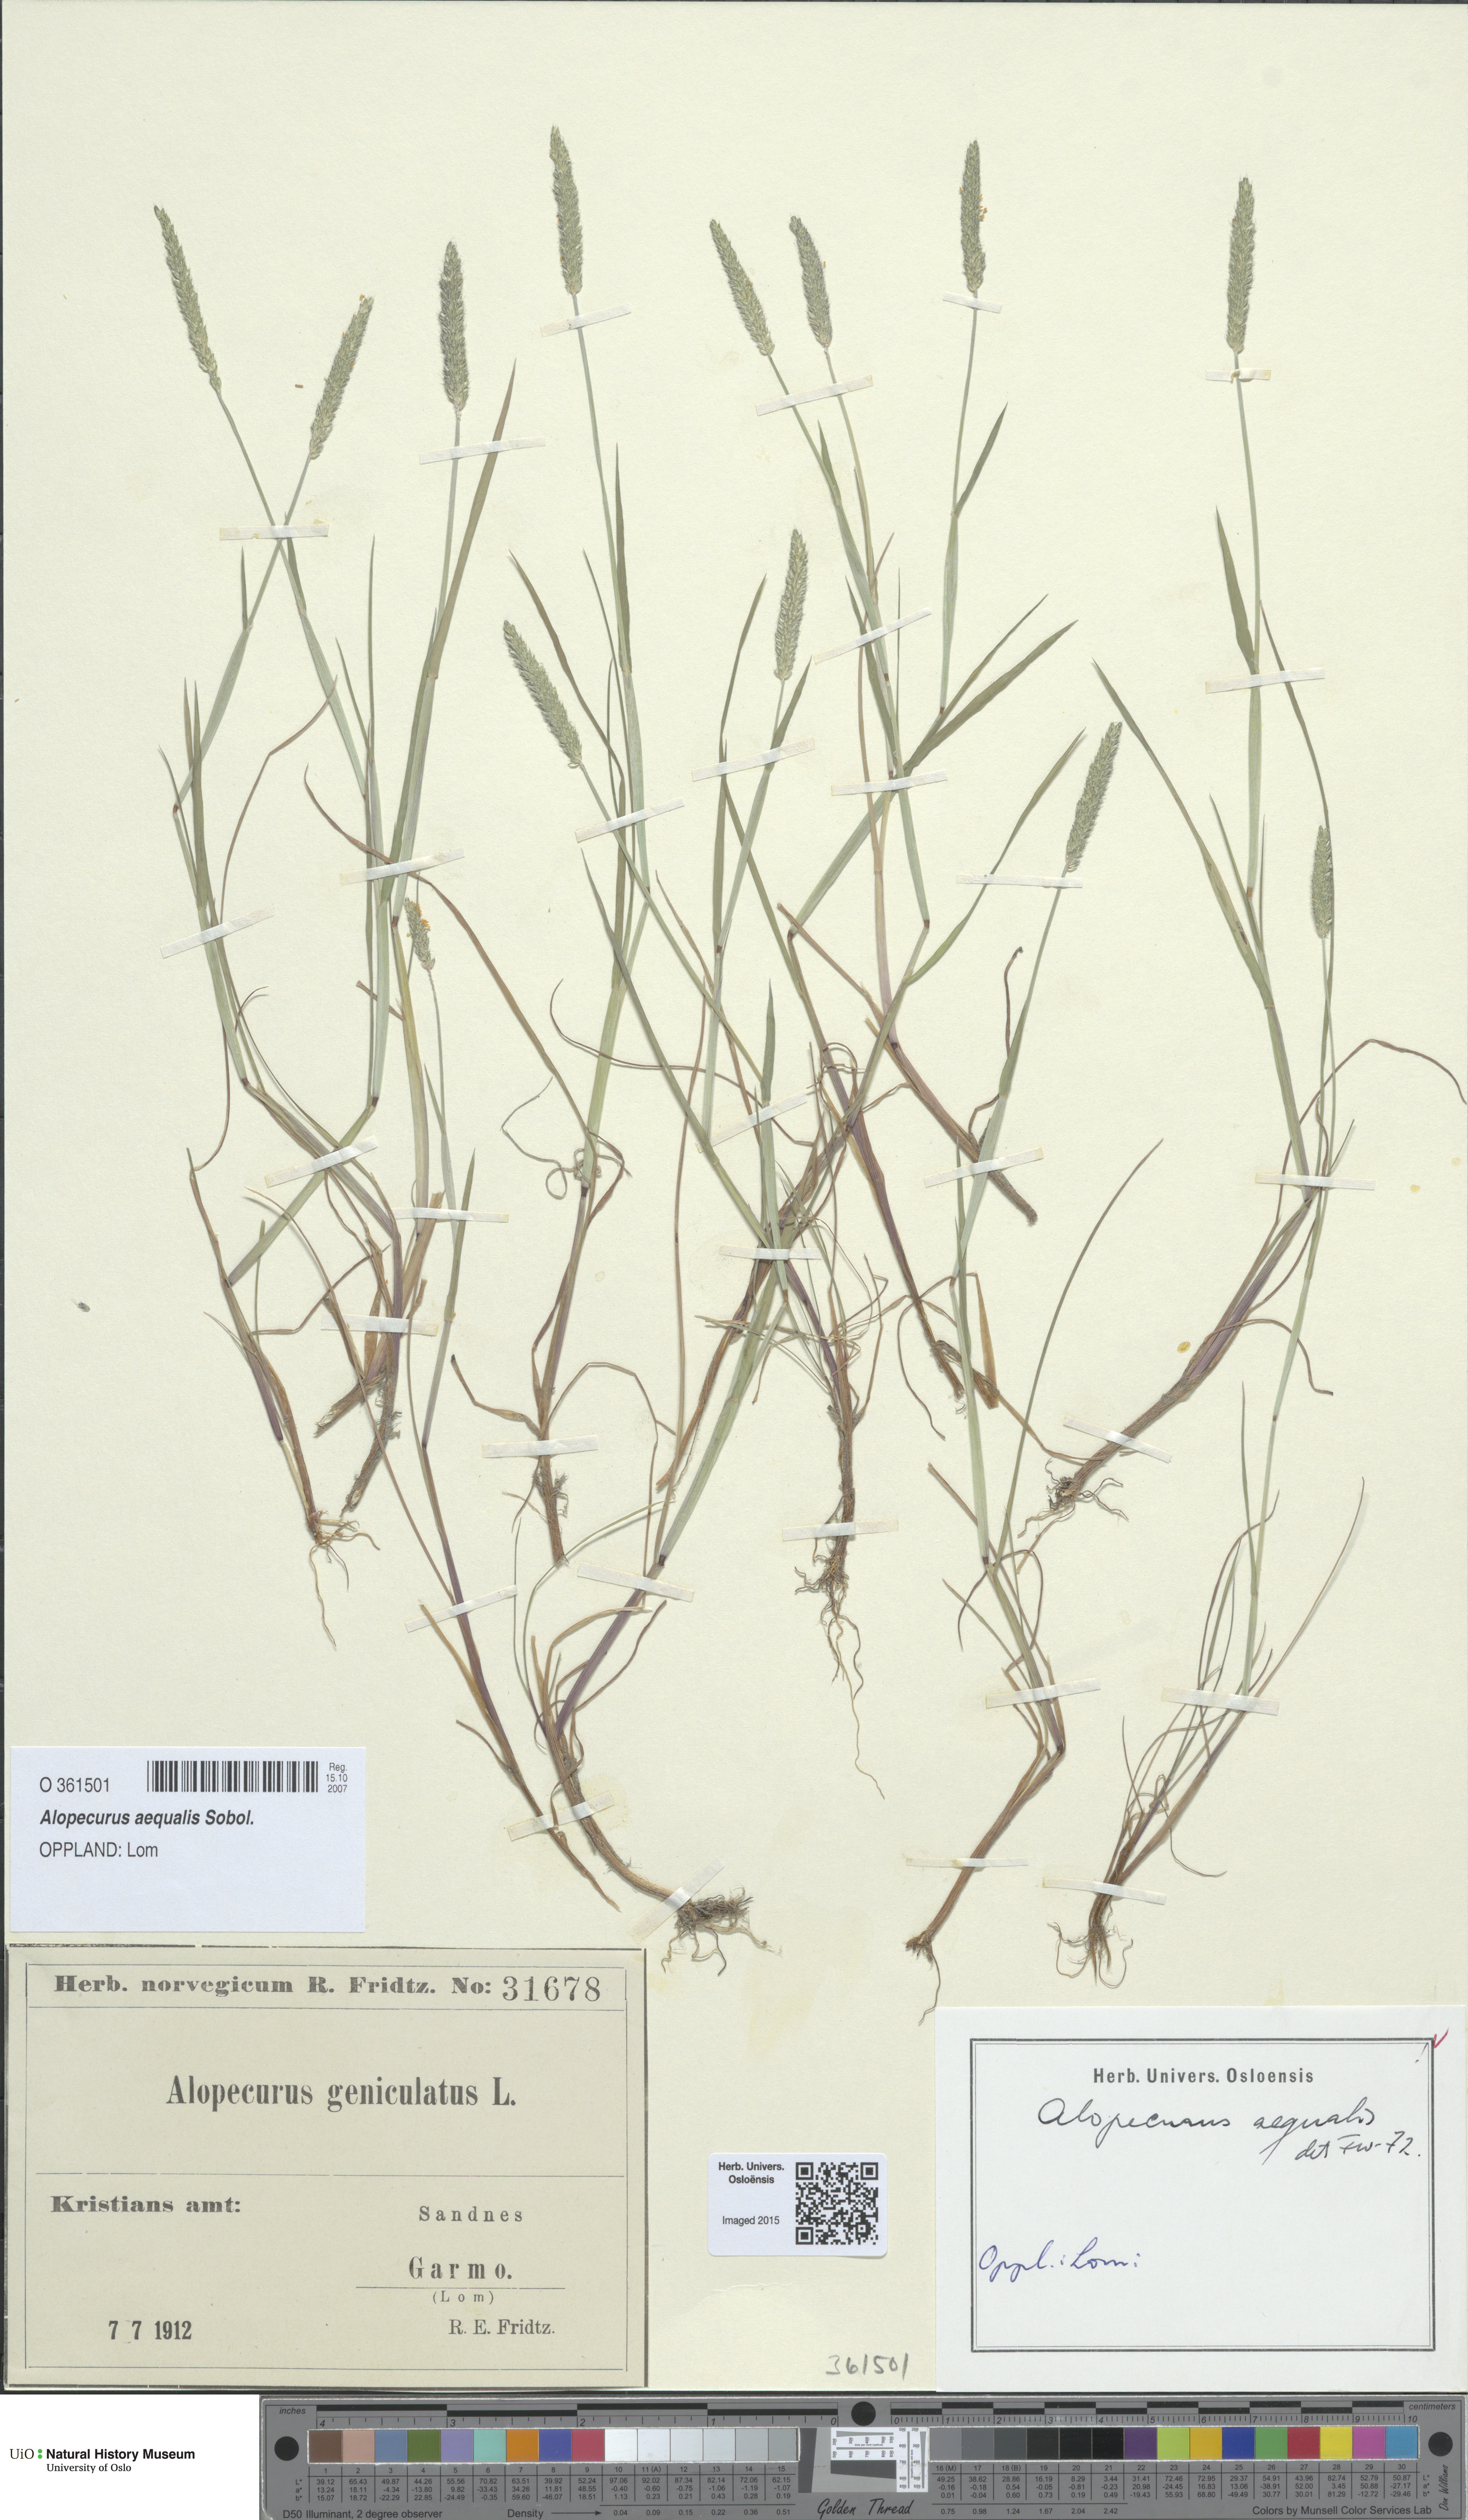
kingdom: Plantae
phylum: Tracheophyta
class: Liliopsida
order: Poales
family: Poaceae
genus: Alopecurus
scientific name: Alopecurus aequalis
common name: Orange foxtail
